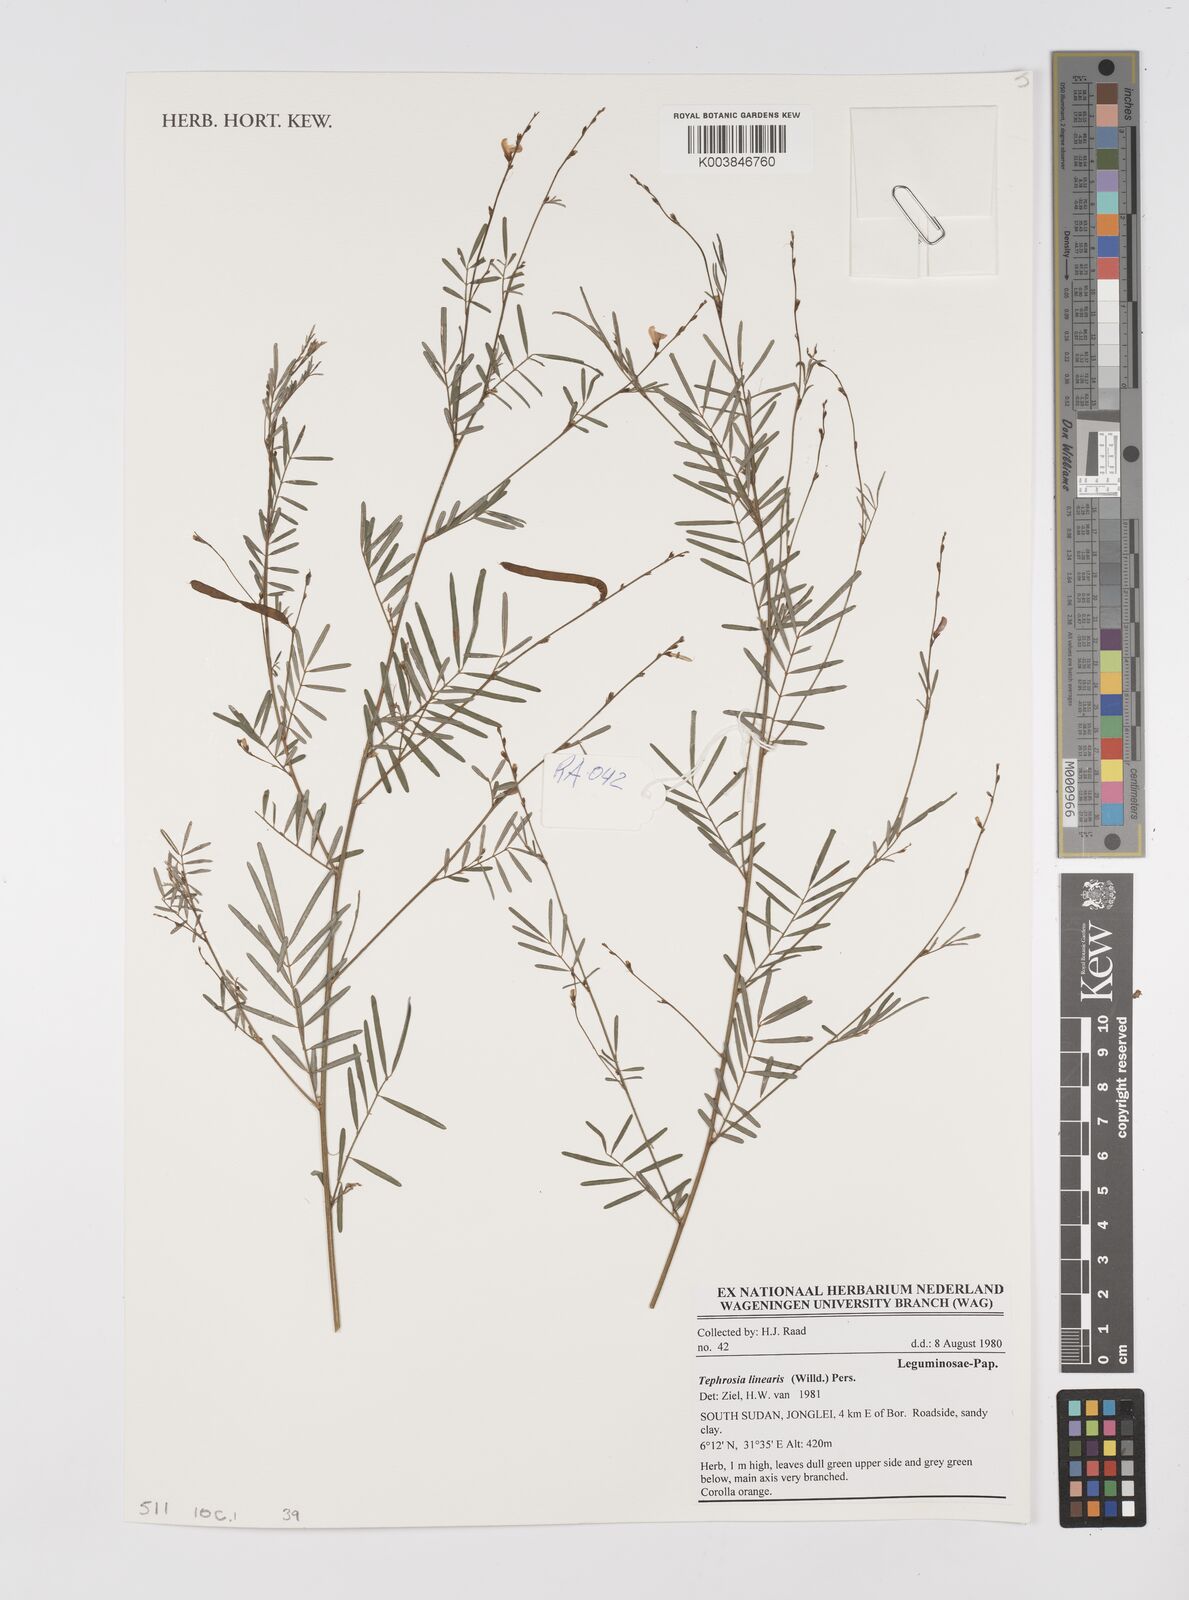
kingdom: Plantae
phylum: Tracheophyta
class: Magnoliopsida
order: Fabales
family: Fabaceae
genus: Tephrosia
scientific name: Tephrosia linearis
